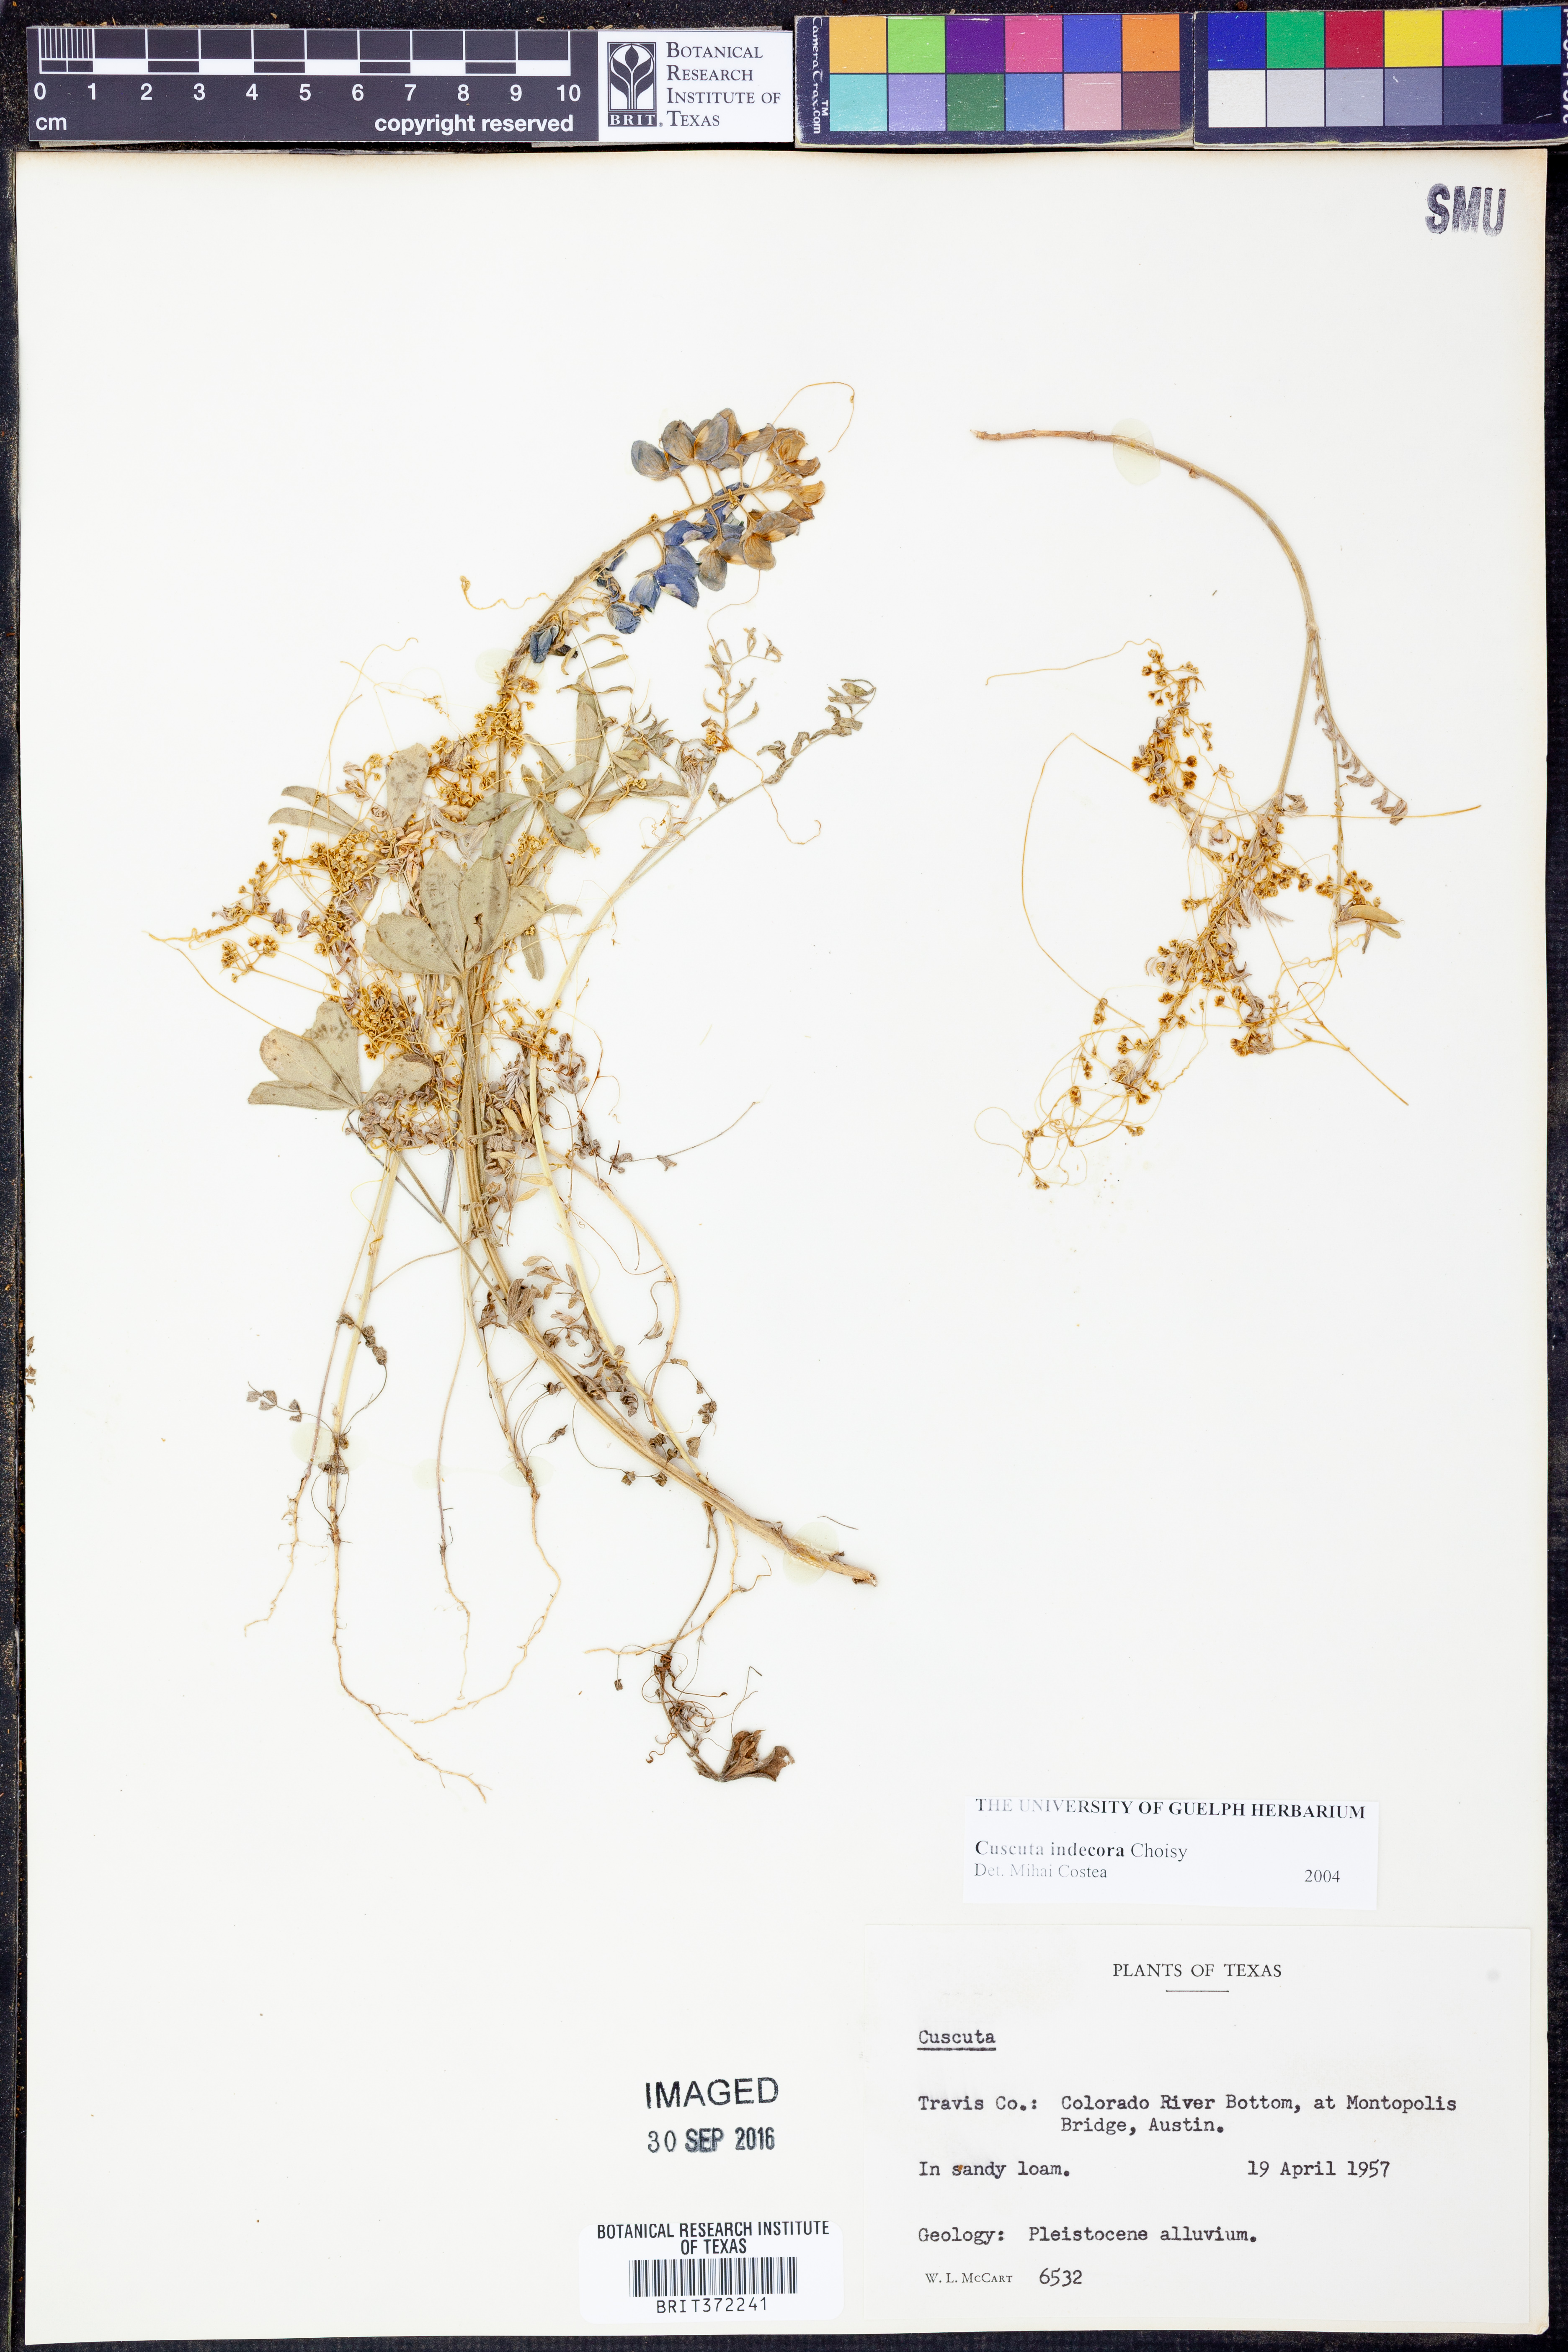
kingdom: Plantae
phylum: Tracheophyta
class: Magnoliopsida
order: Solanales
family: Convolvulaceae
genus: Cuscuta
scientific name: Cuscuta indecora
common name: Large-seed dodder
